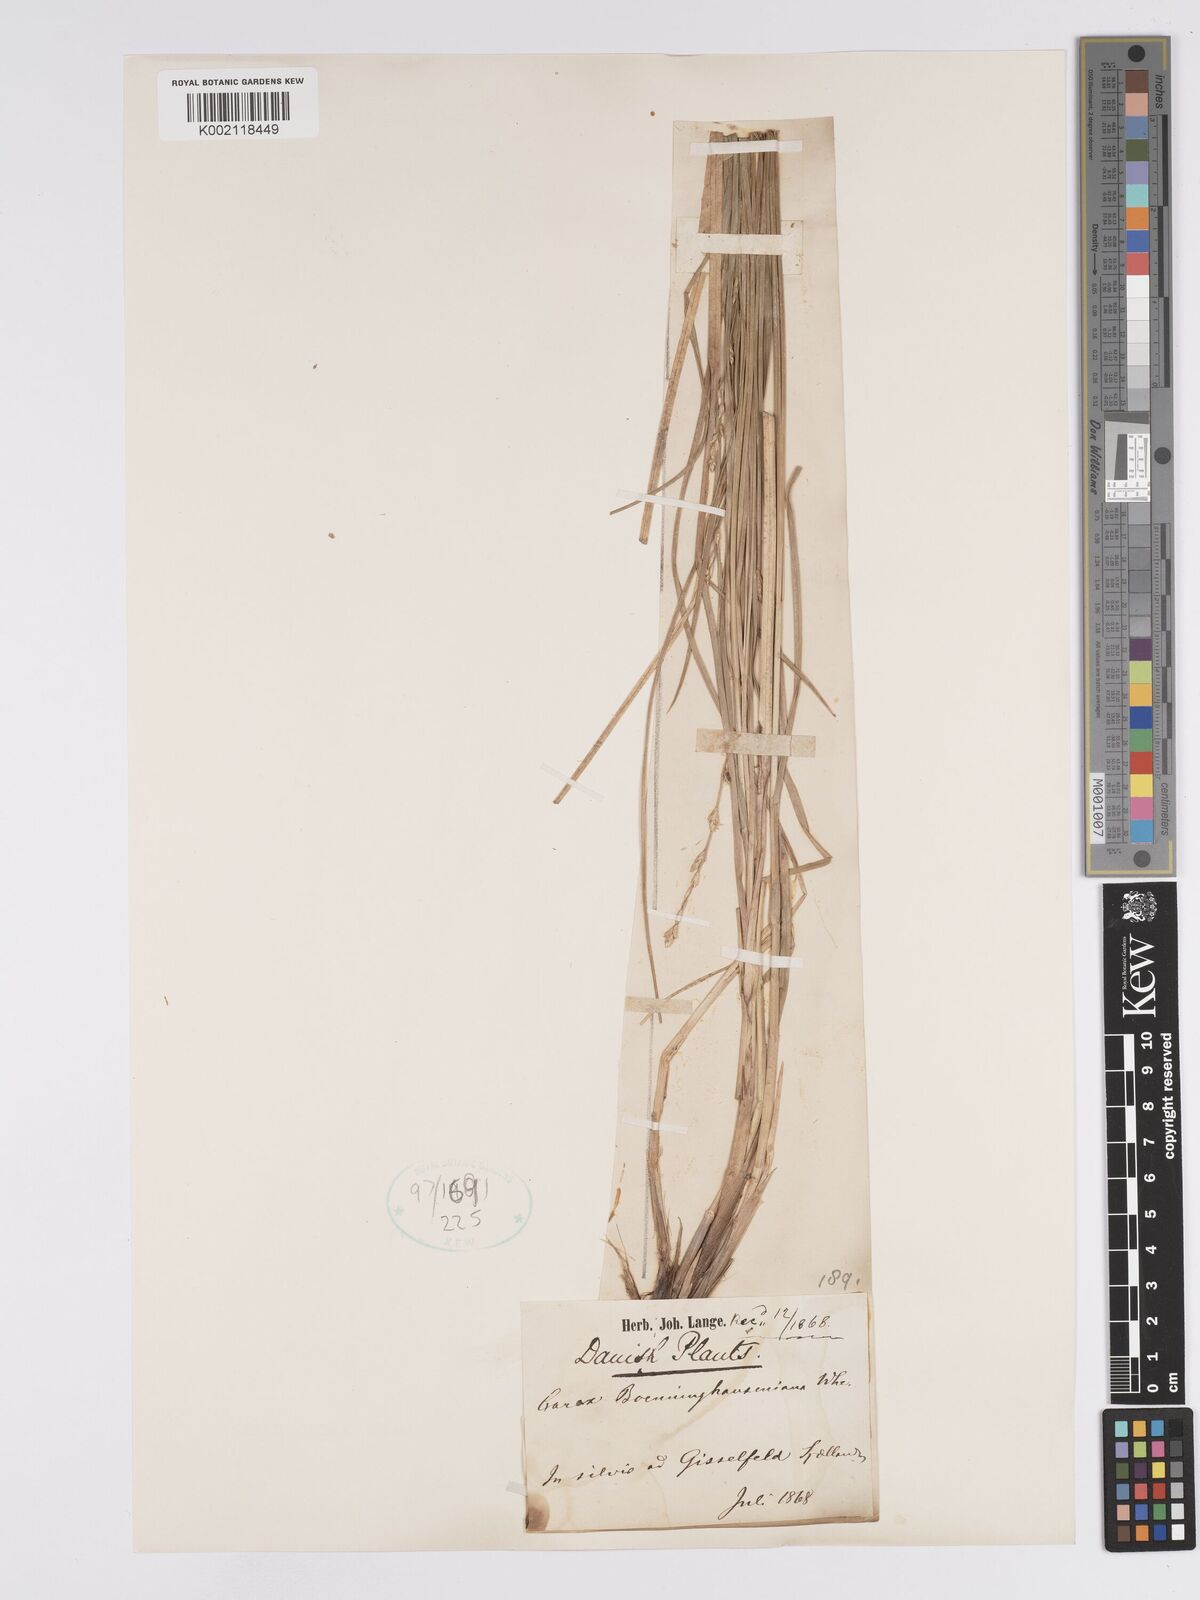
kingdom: Plantae
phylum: Tracheophyta
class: Liliopsida
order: Poales
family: Cyperaceae
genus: Carex
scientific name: Carex boenninghausiana
